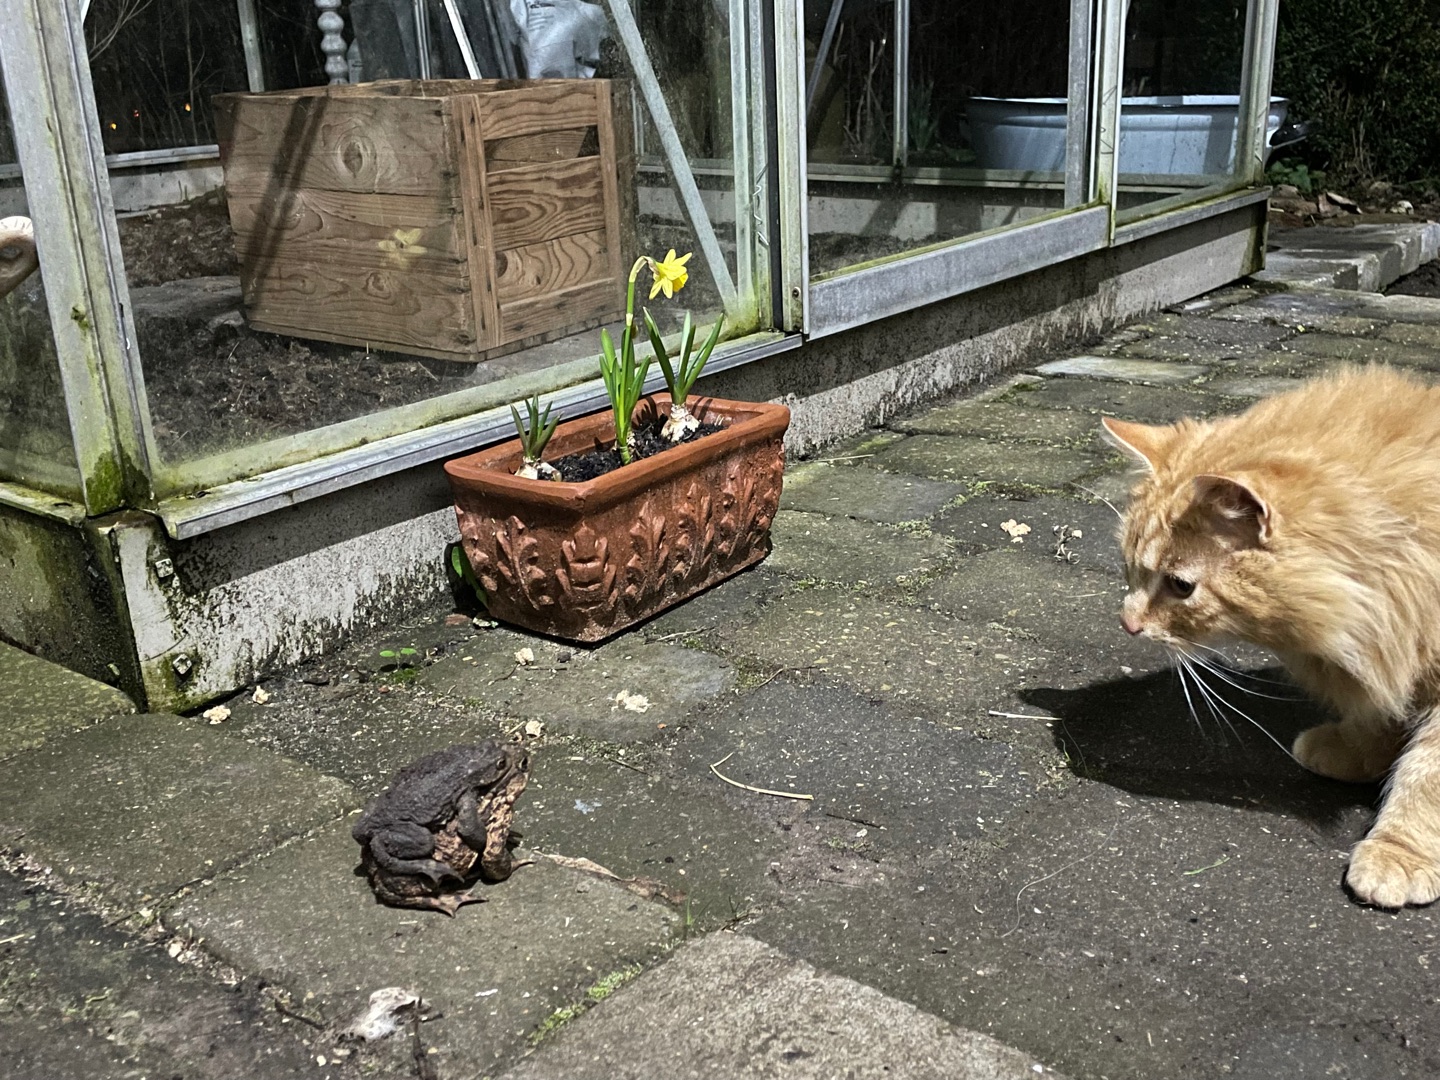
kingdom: Animalia
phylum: Chordata
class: Amphibia
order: Anura
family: Bufonidae
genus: Bufo
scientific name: Bufo bufo
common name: Skrubtudse
